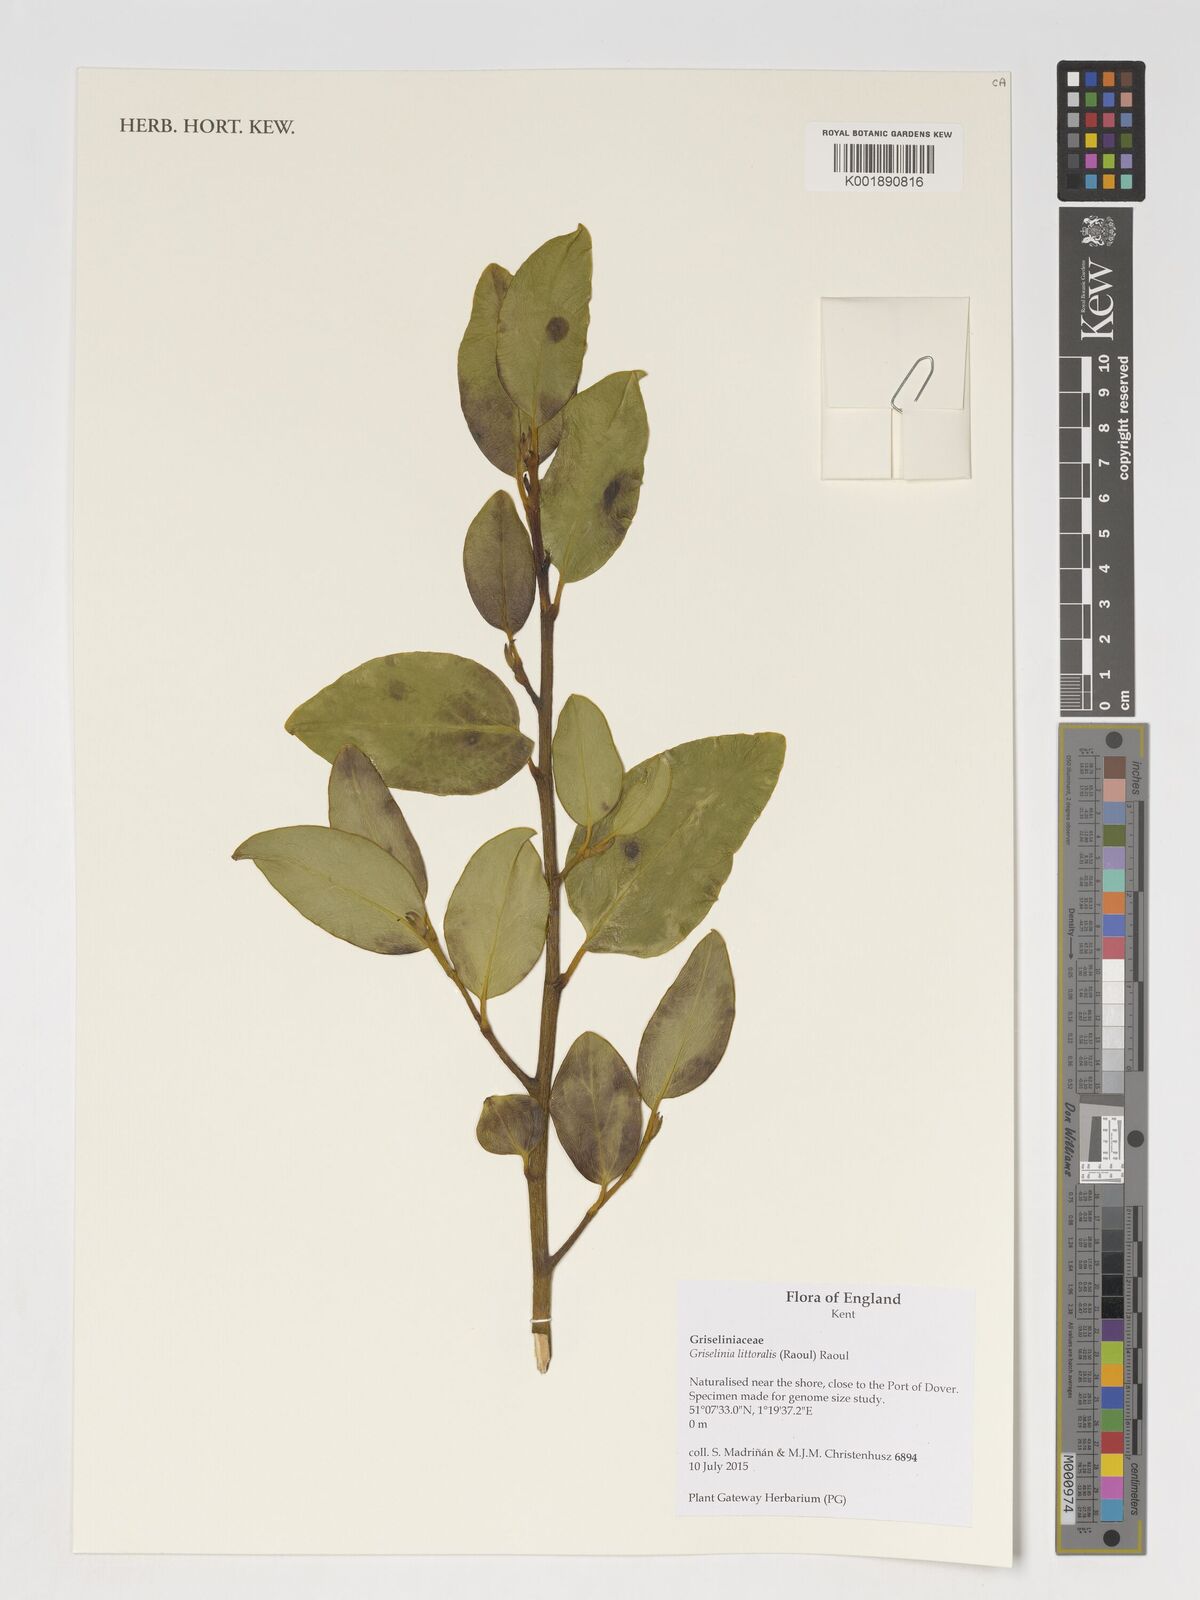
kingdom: Plantae
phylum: Tracheophyta
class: Magnoliopsida
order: Apiales
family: Griseliniaceae
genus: Griselinia
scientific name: Griselinia littoralis
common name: New zealand broadleaf
